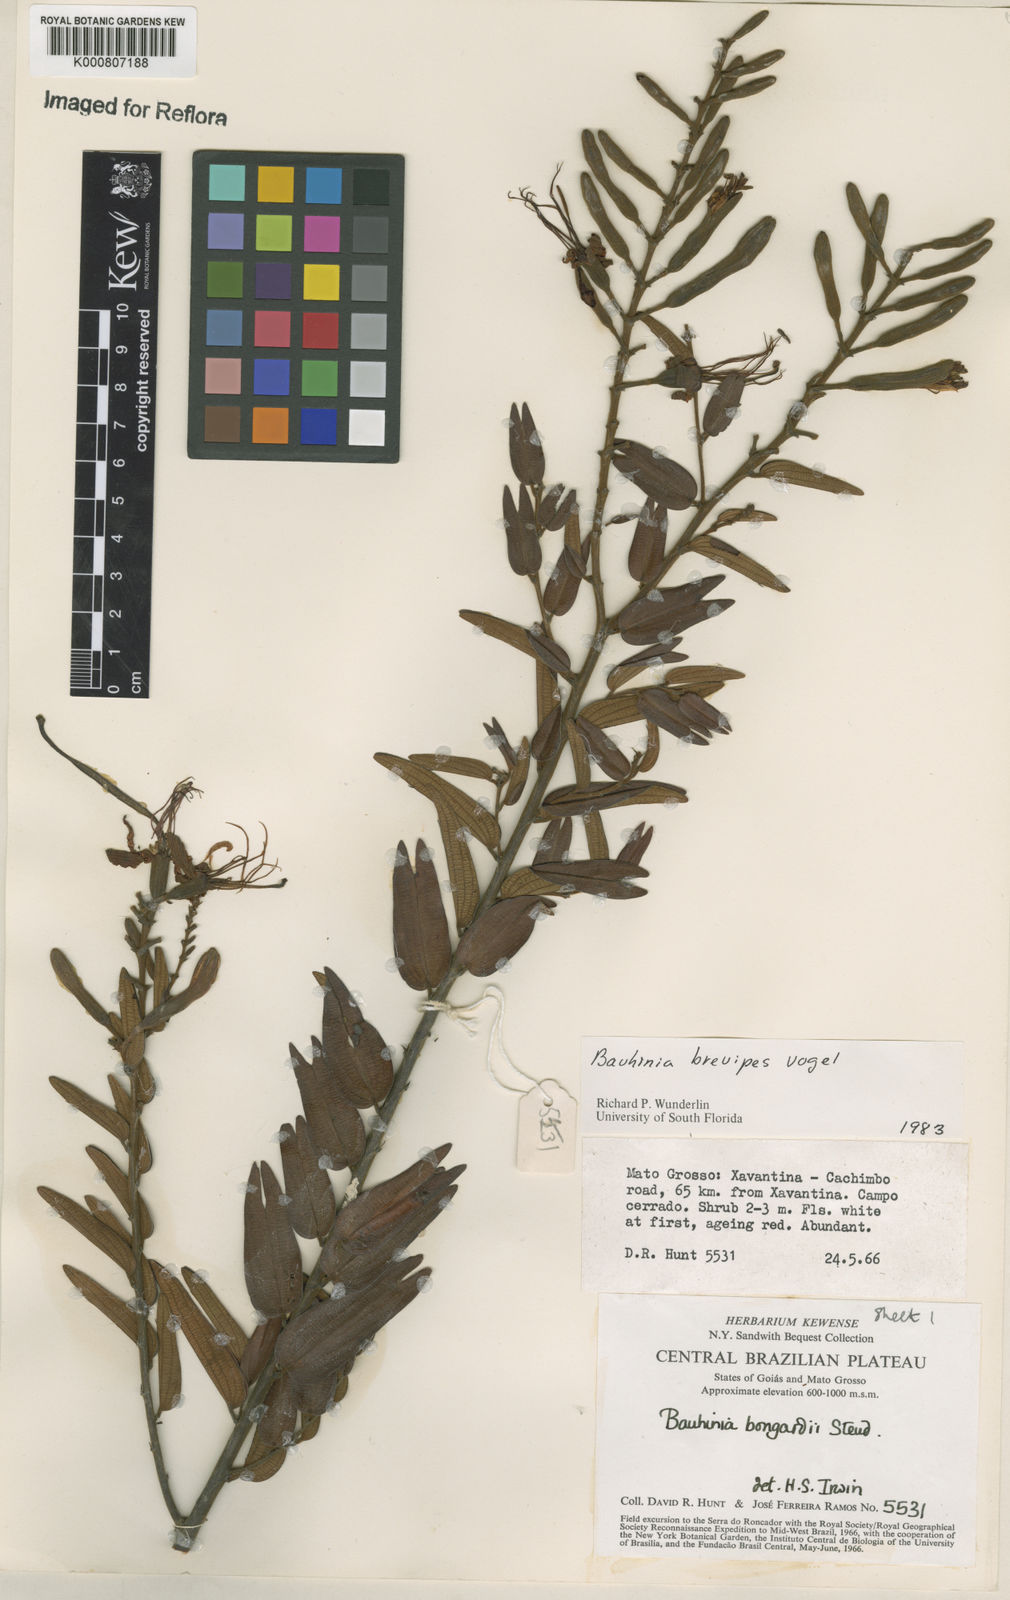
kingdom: Plantae
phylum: Tracheophyta
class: Magnoliopsida
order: Fabales
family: Fabaceae
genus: Bauhinia
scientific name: Bauhinia brevipes
